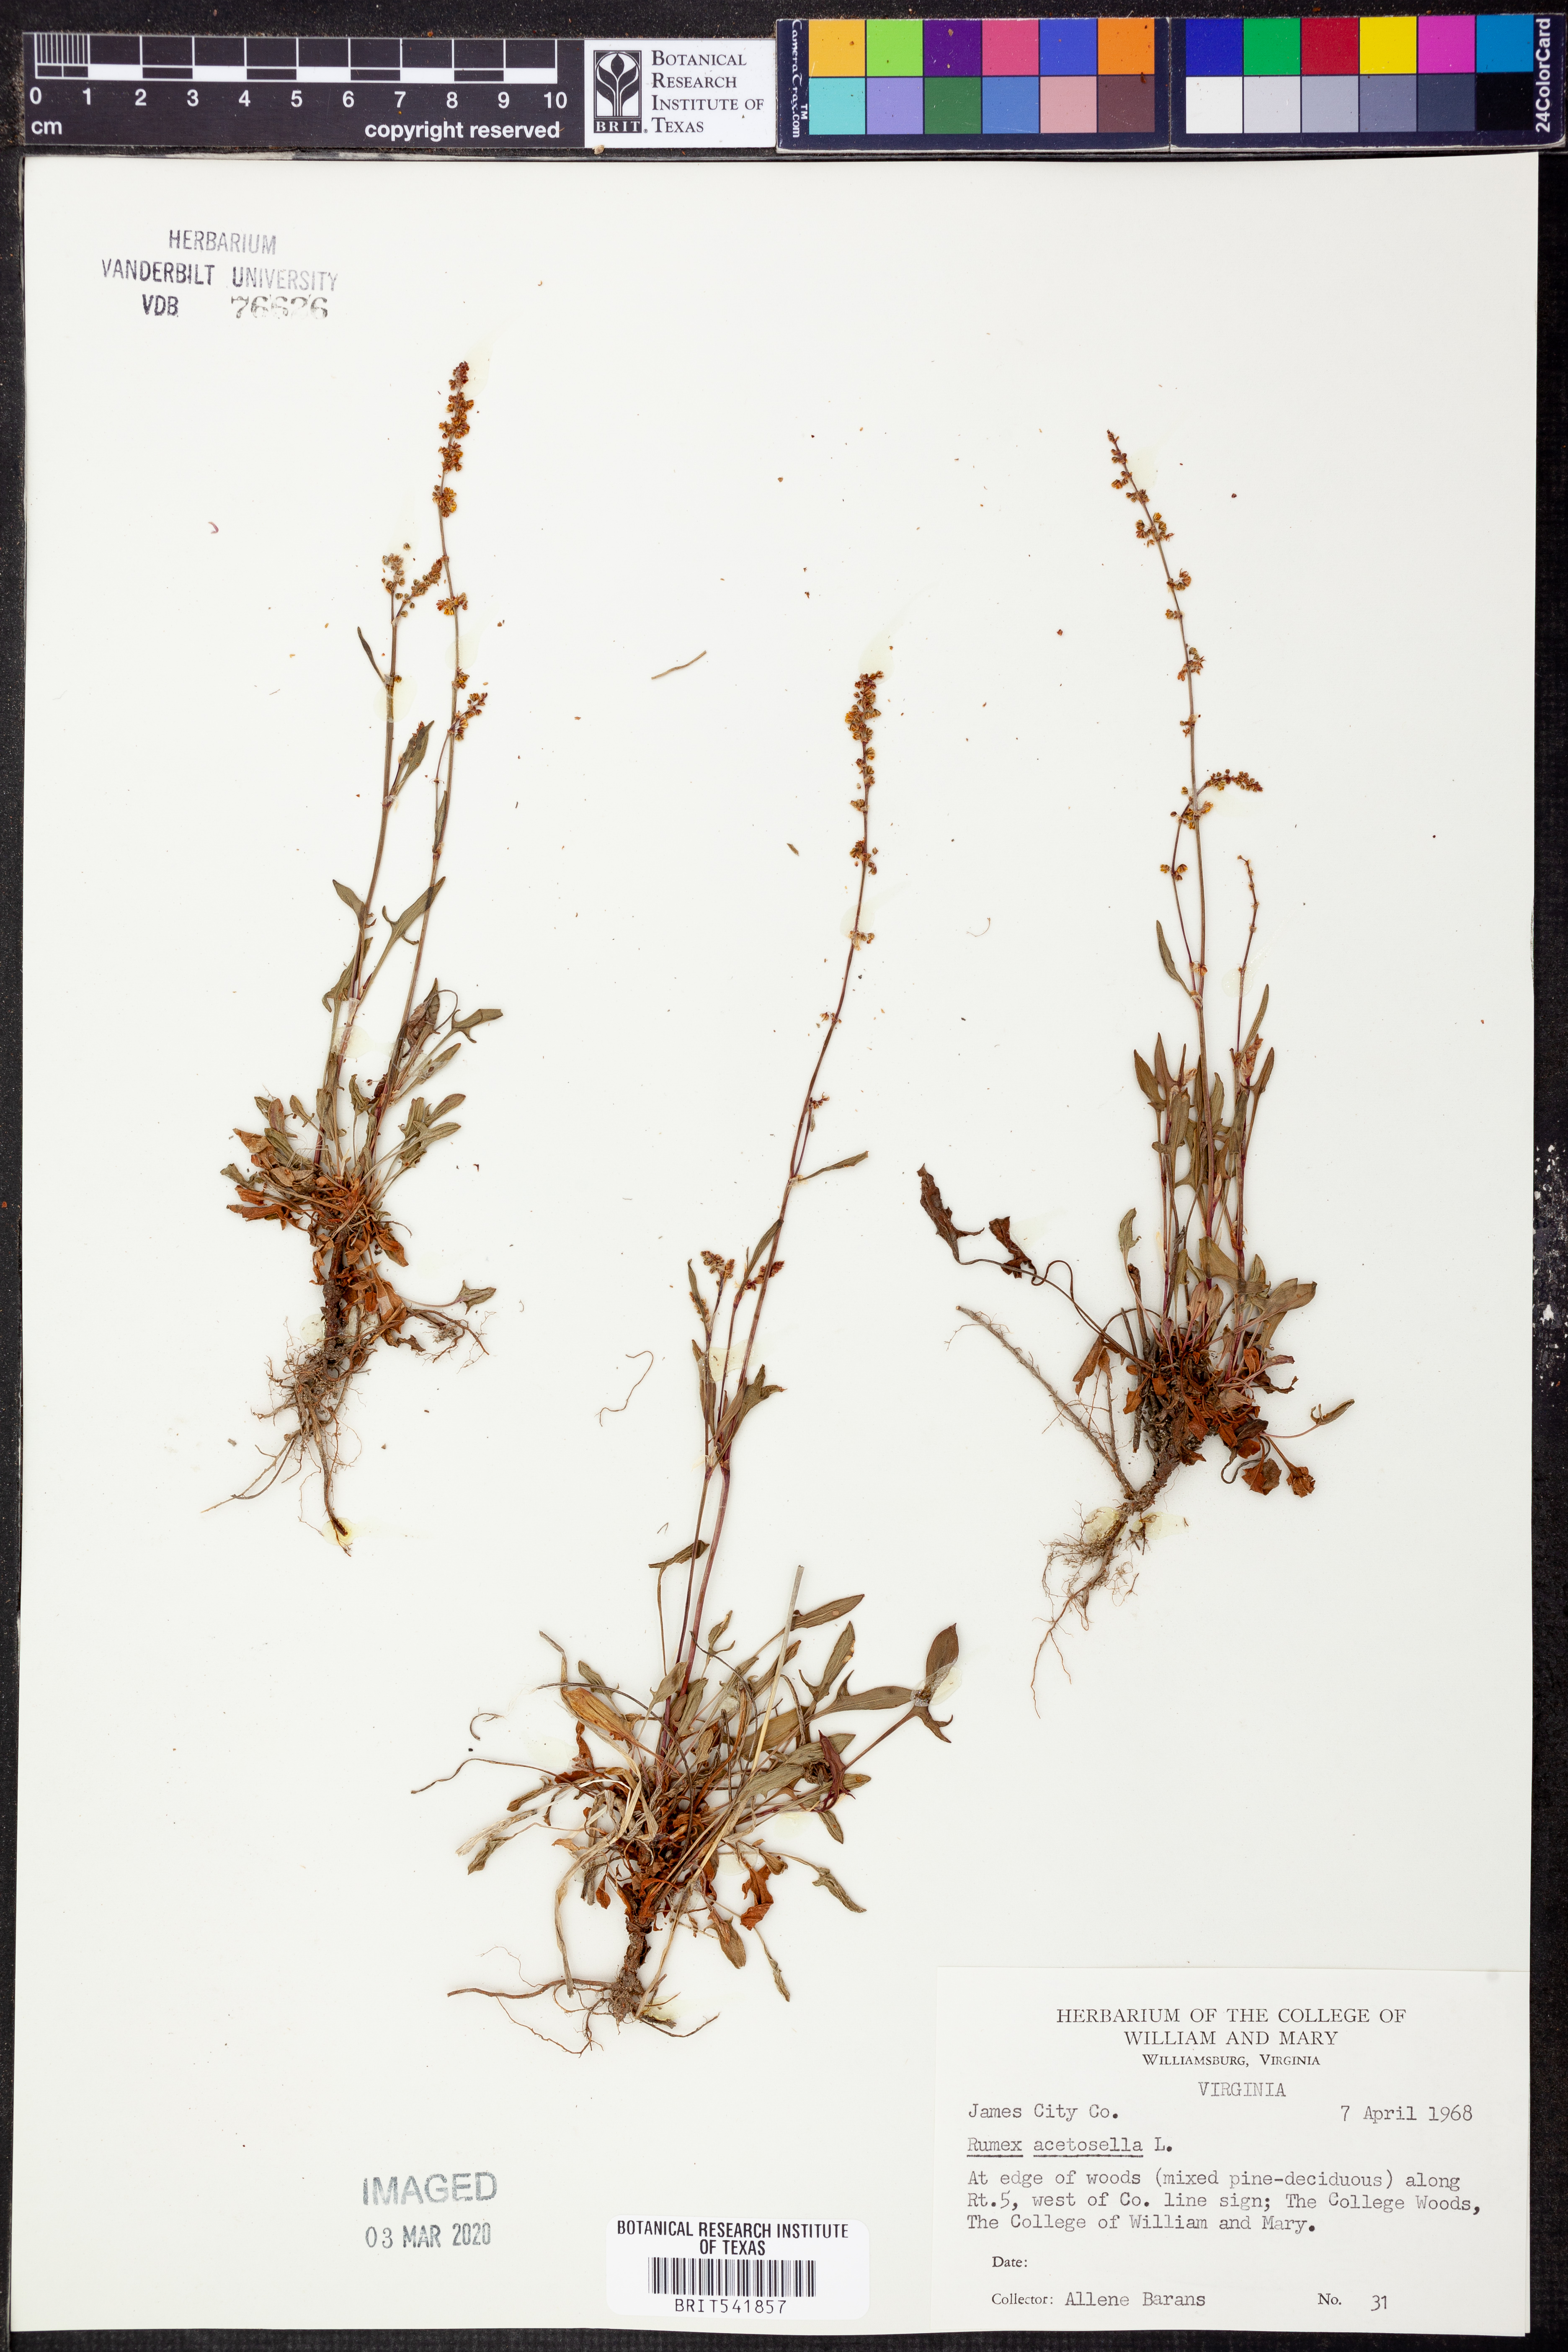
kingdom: Plantae
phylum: Tracheophyta
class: Magnoliopsida
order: Caryophyllales
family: Polygonaceae
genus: Rumex
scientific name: Rumex acetosella
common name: Common sheep sorrel
